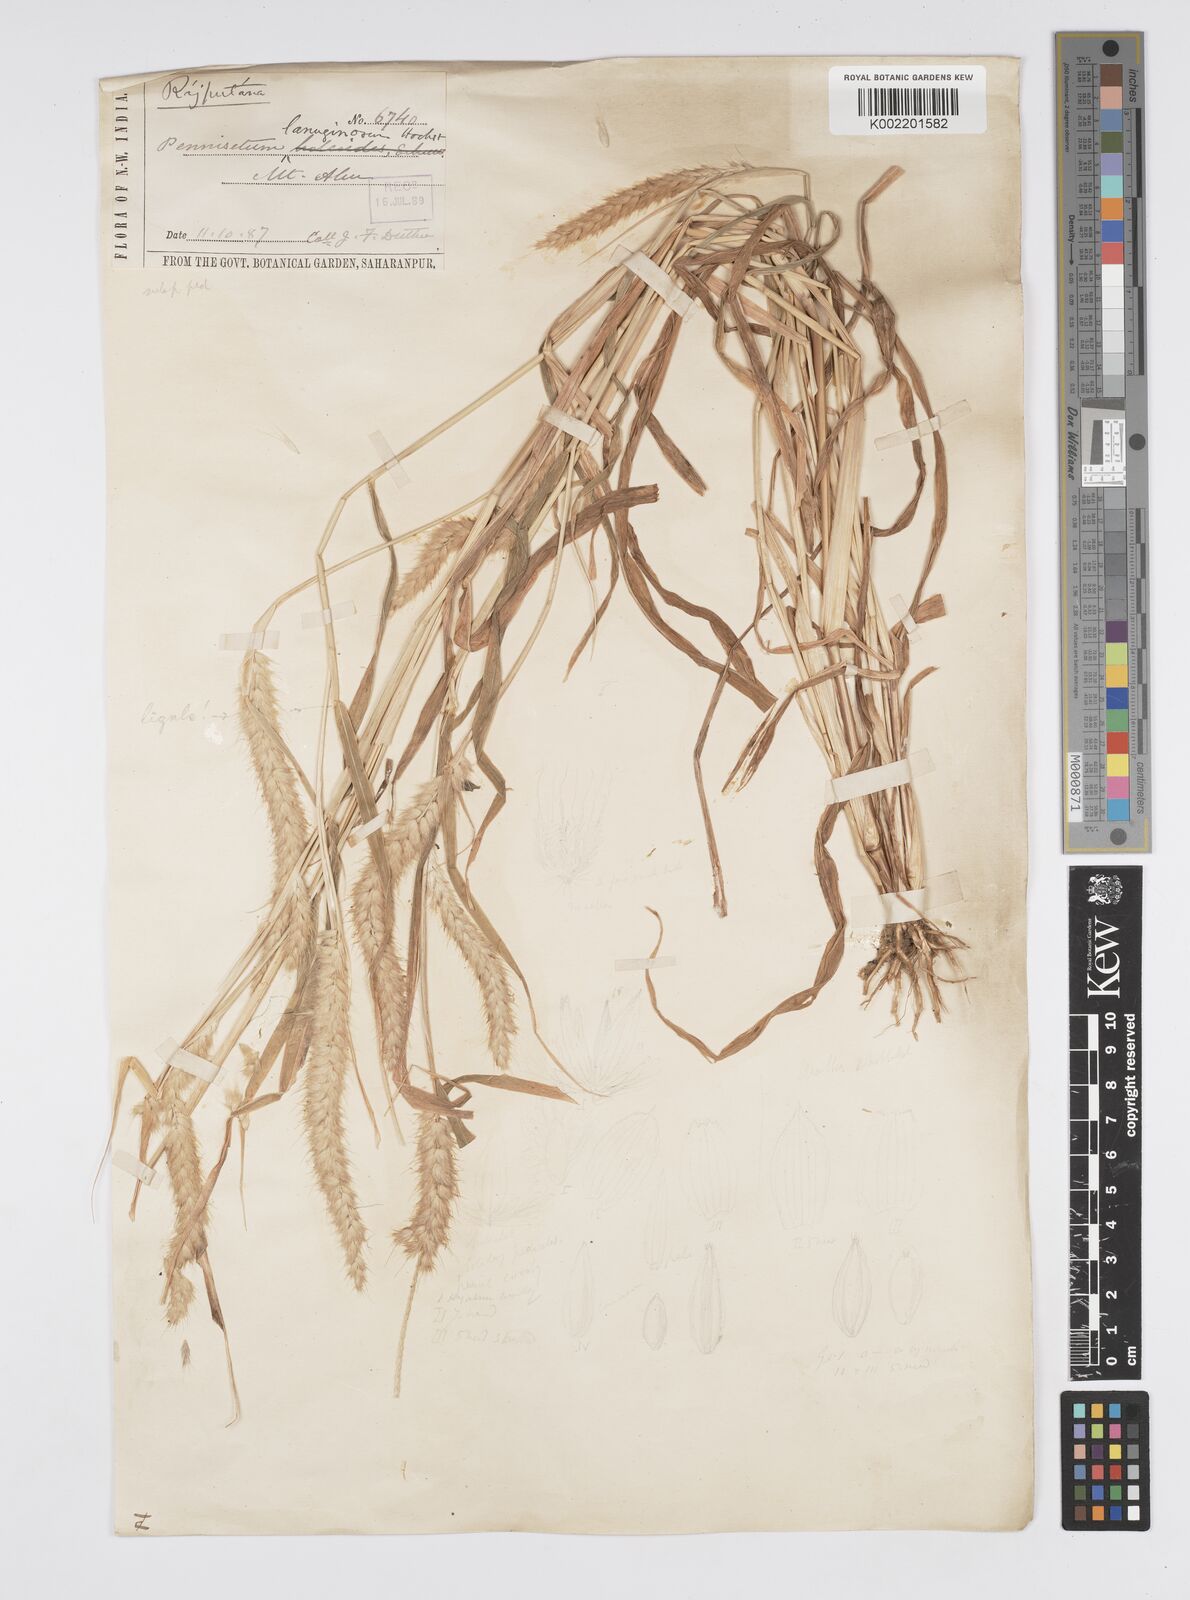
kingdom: Plantae
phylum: Tracheophyta
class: Liliopsida
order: Poales
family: Poaceae
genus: Cenchrus
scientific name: Cenchrus pedicellatus
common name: Hairy fountain grass
